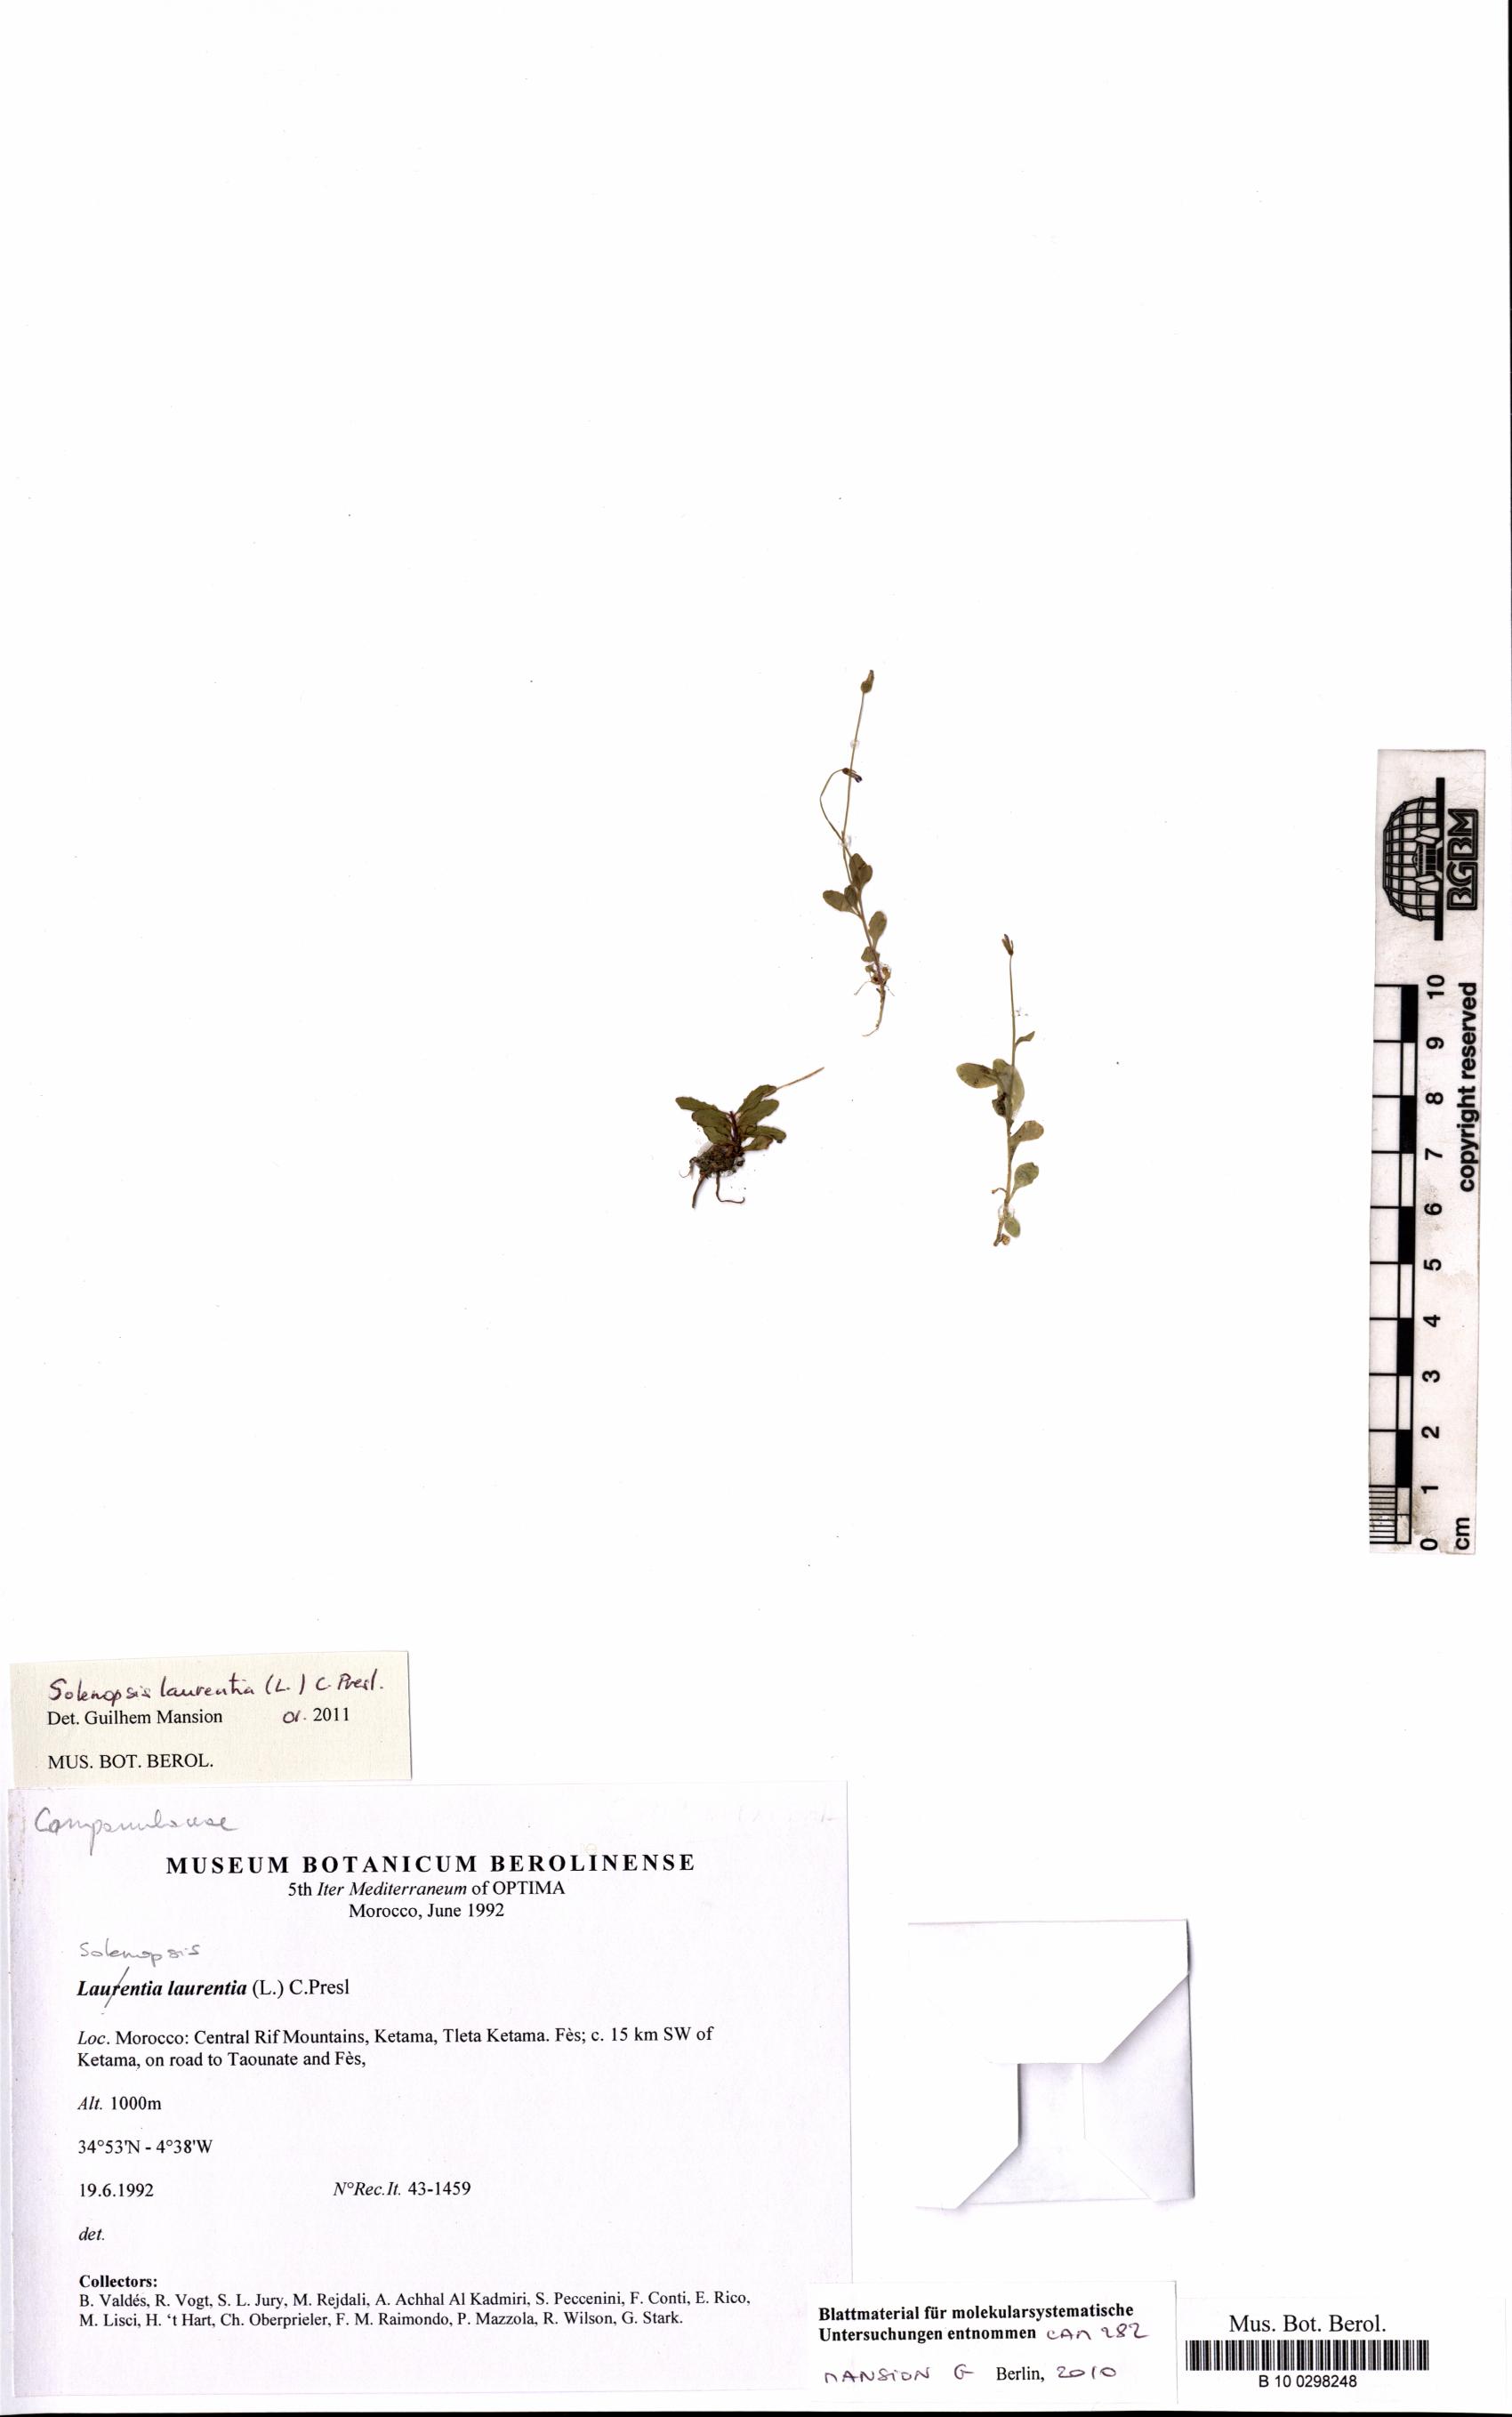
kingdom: Plantae
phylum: Tracheophyta
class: Magnoliopsida
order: Asterales
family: Campanulaceae
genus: Solenopsis
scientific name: Solenopsis laurentia
